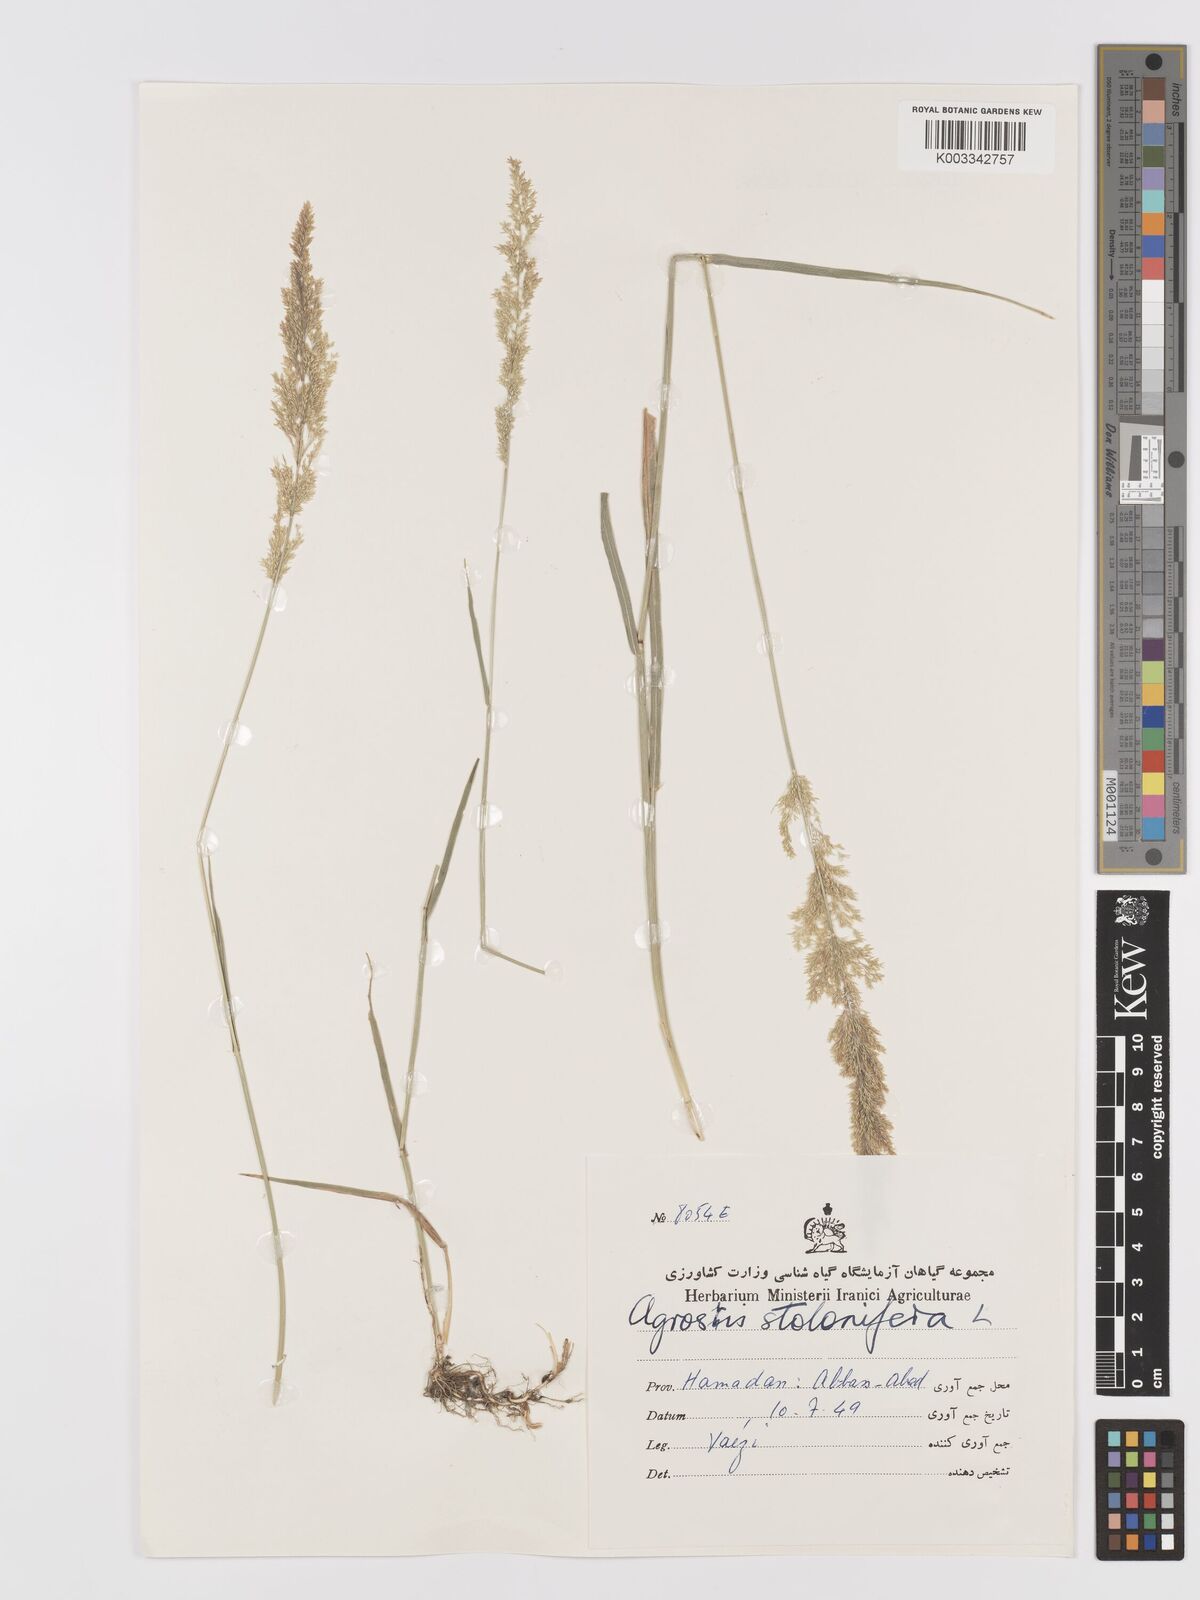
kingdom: Plantae
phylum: Tracheophyta
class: Liliopsida
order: Poales
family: Poaceae
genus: Agrostis
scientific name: Agrostis stolonifera
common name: Creeping bentgrass
